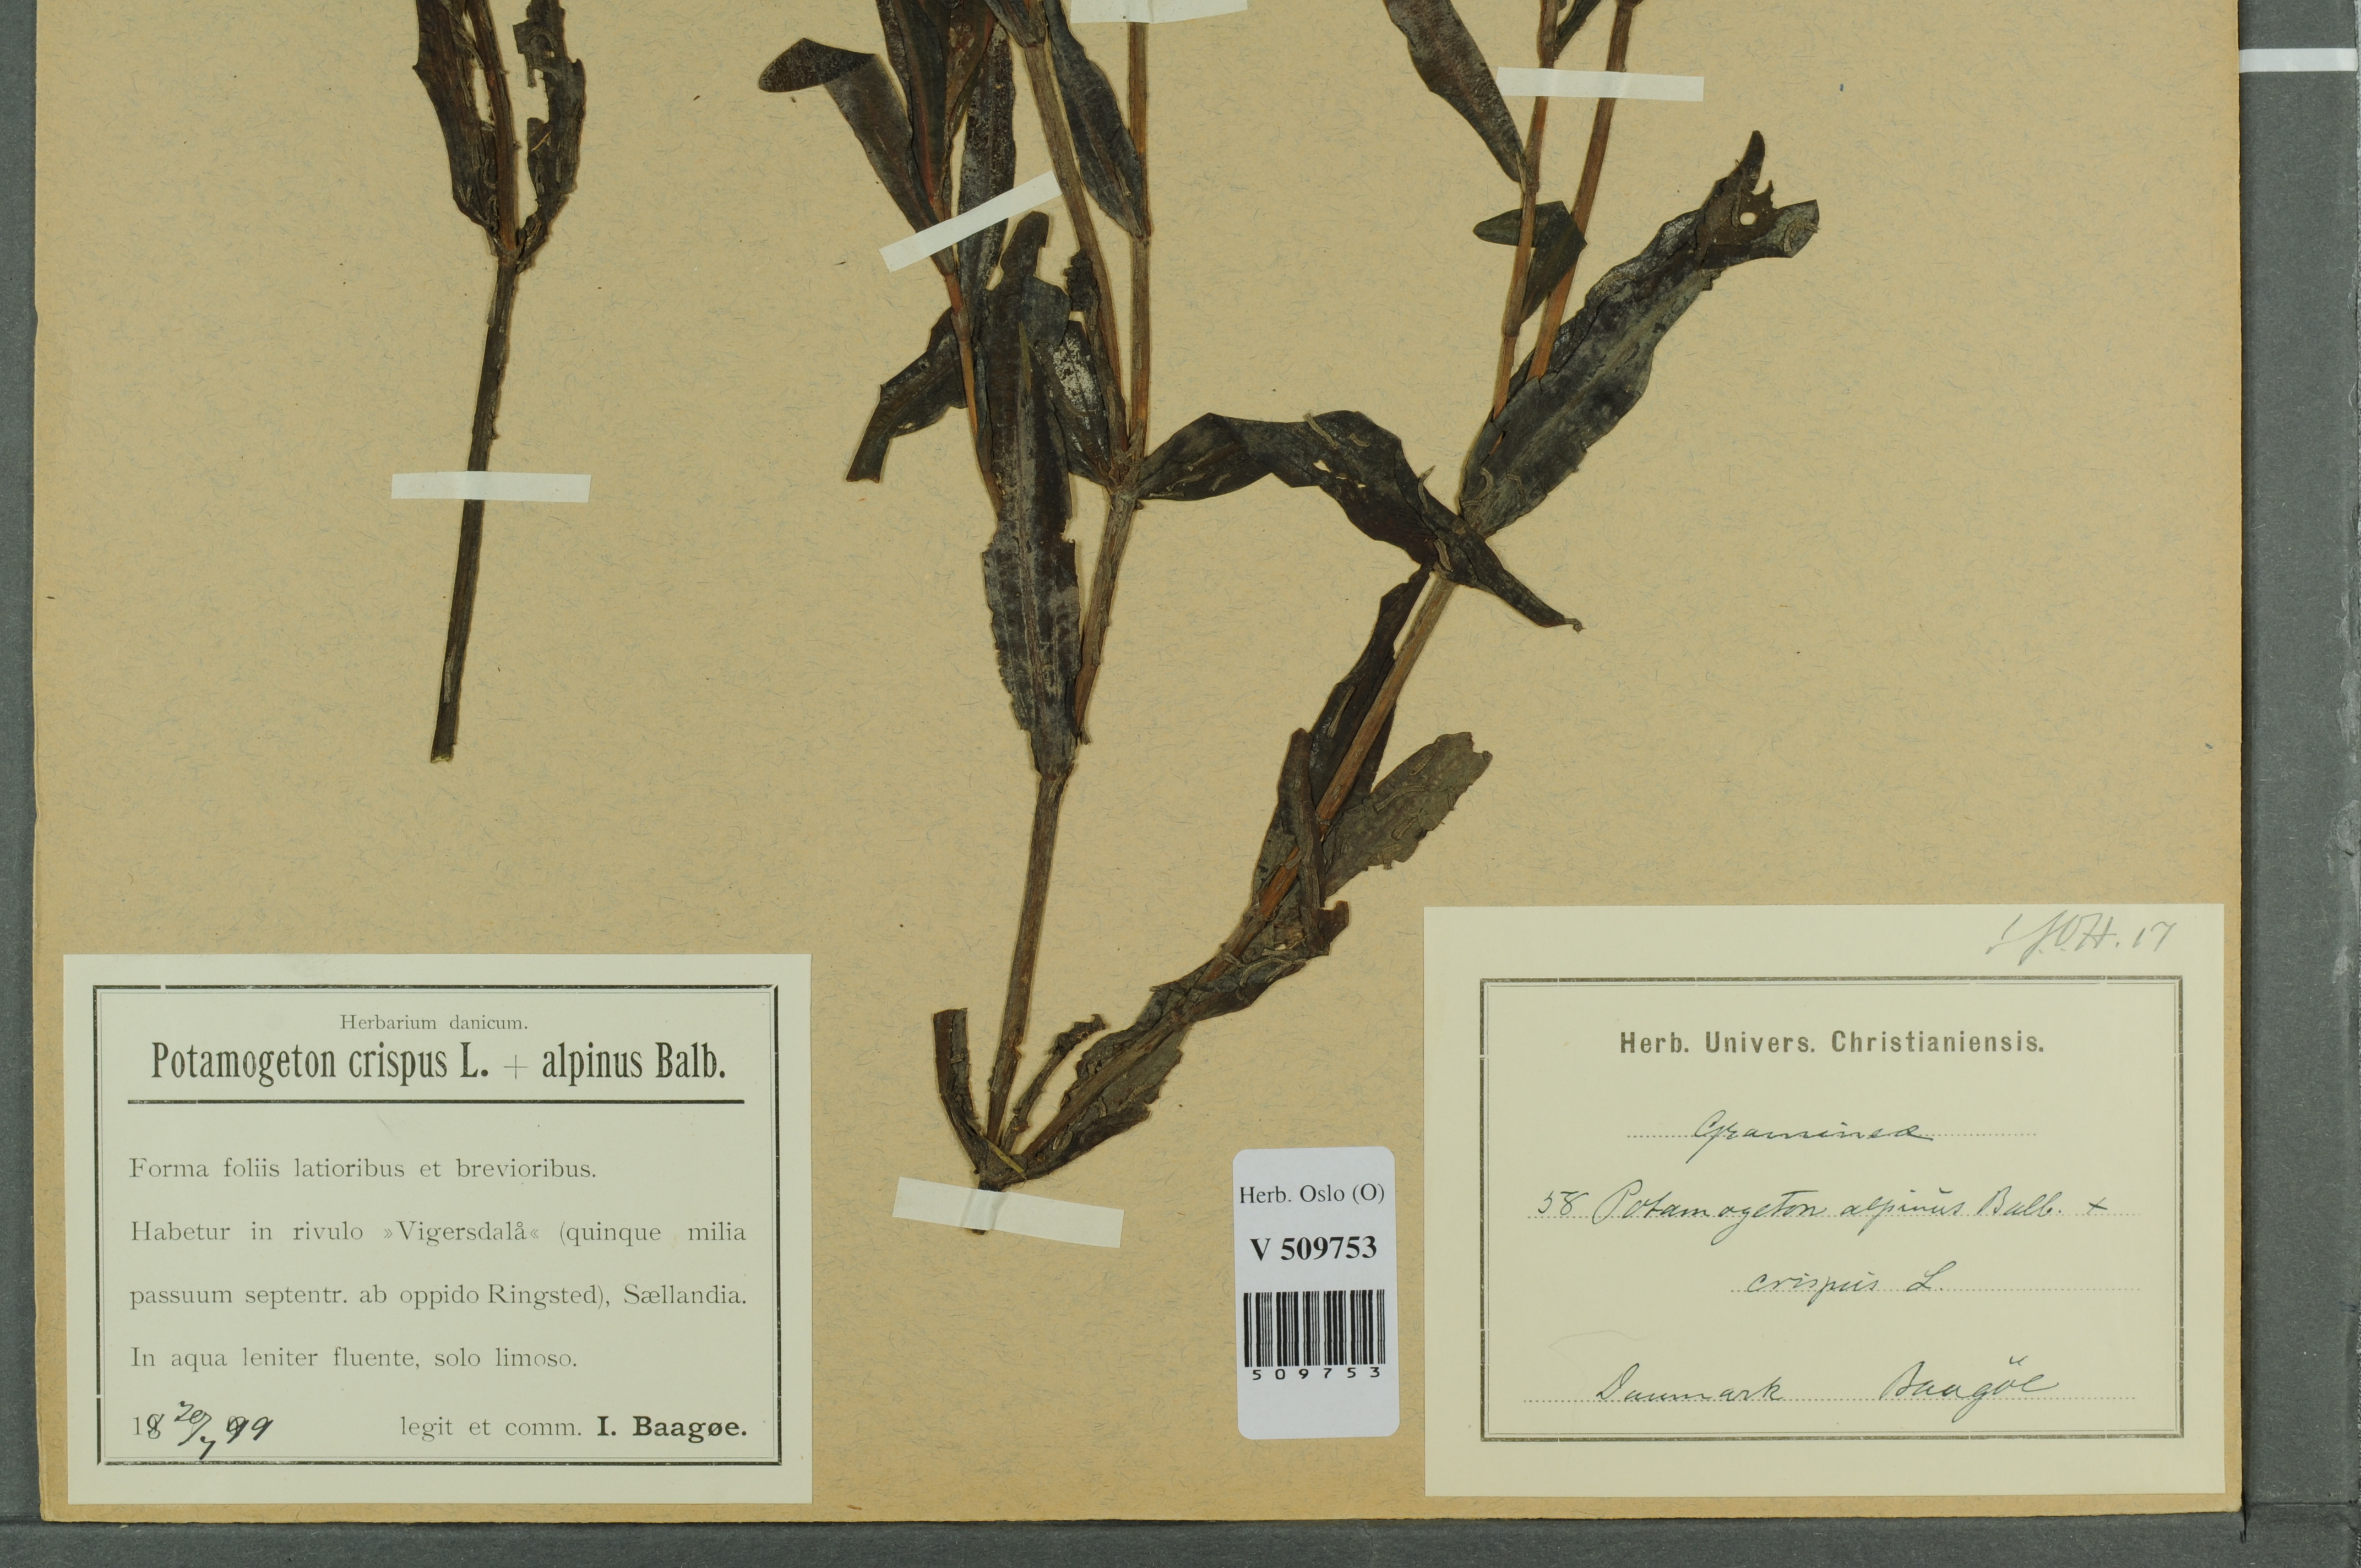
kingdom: Plantae
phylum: Tracheophyta
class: Liliopsida
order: Alismatales
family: Potamogetonaceae
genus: Potamogeton
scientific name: Potamogeton
